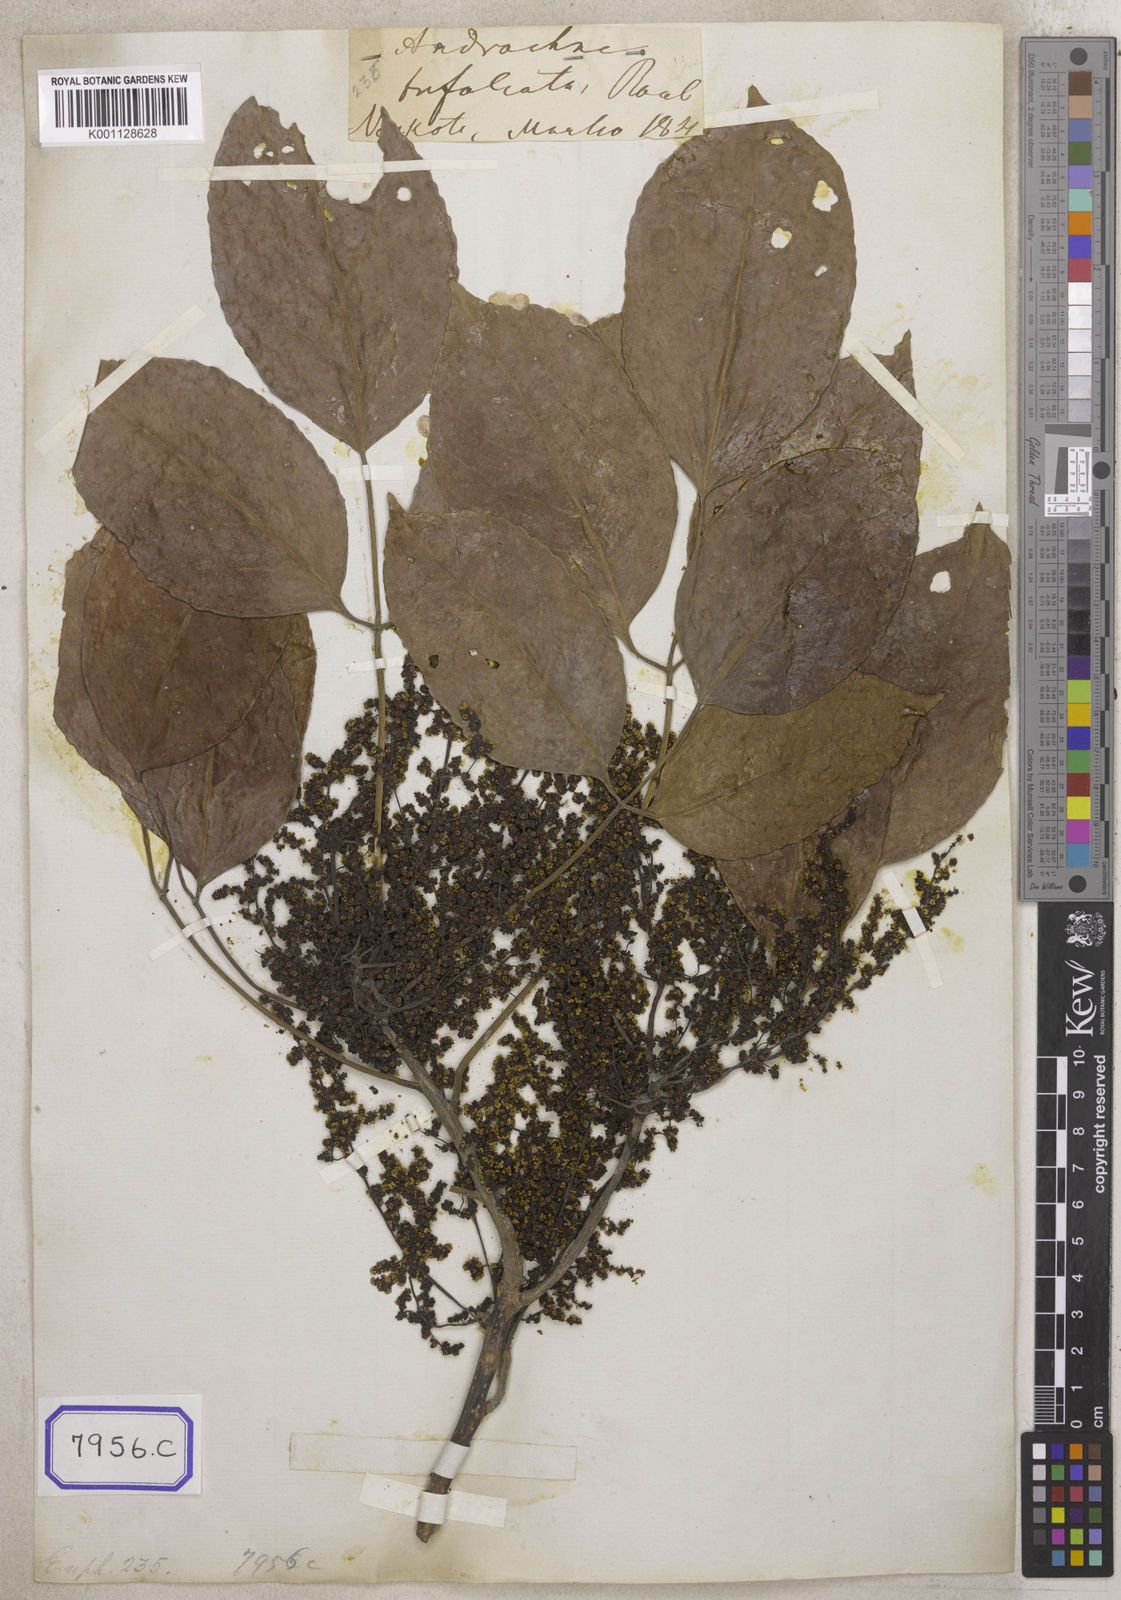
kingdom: Plantae
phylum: Tracheophyta
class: Magnoliopsida
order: Malpighiales
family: Euphorbiaceae
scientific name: Euphorbiaceae
